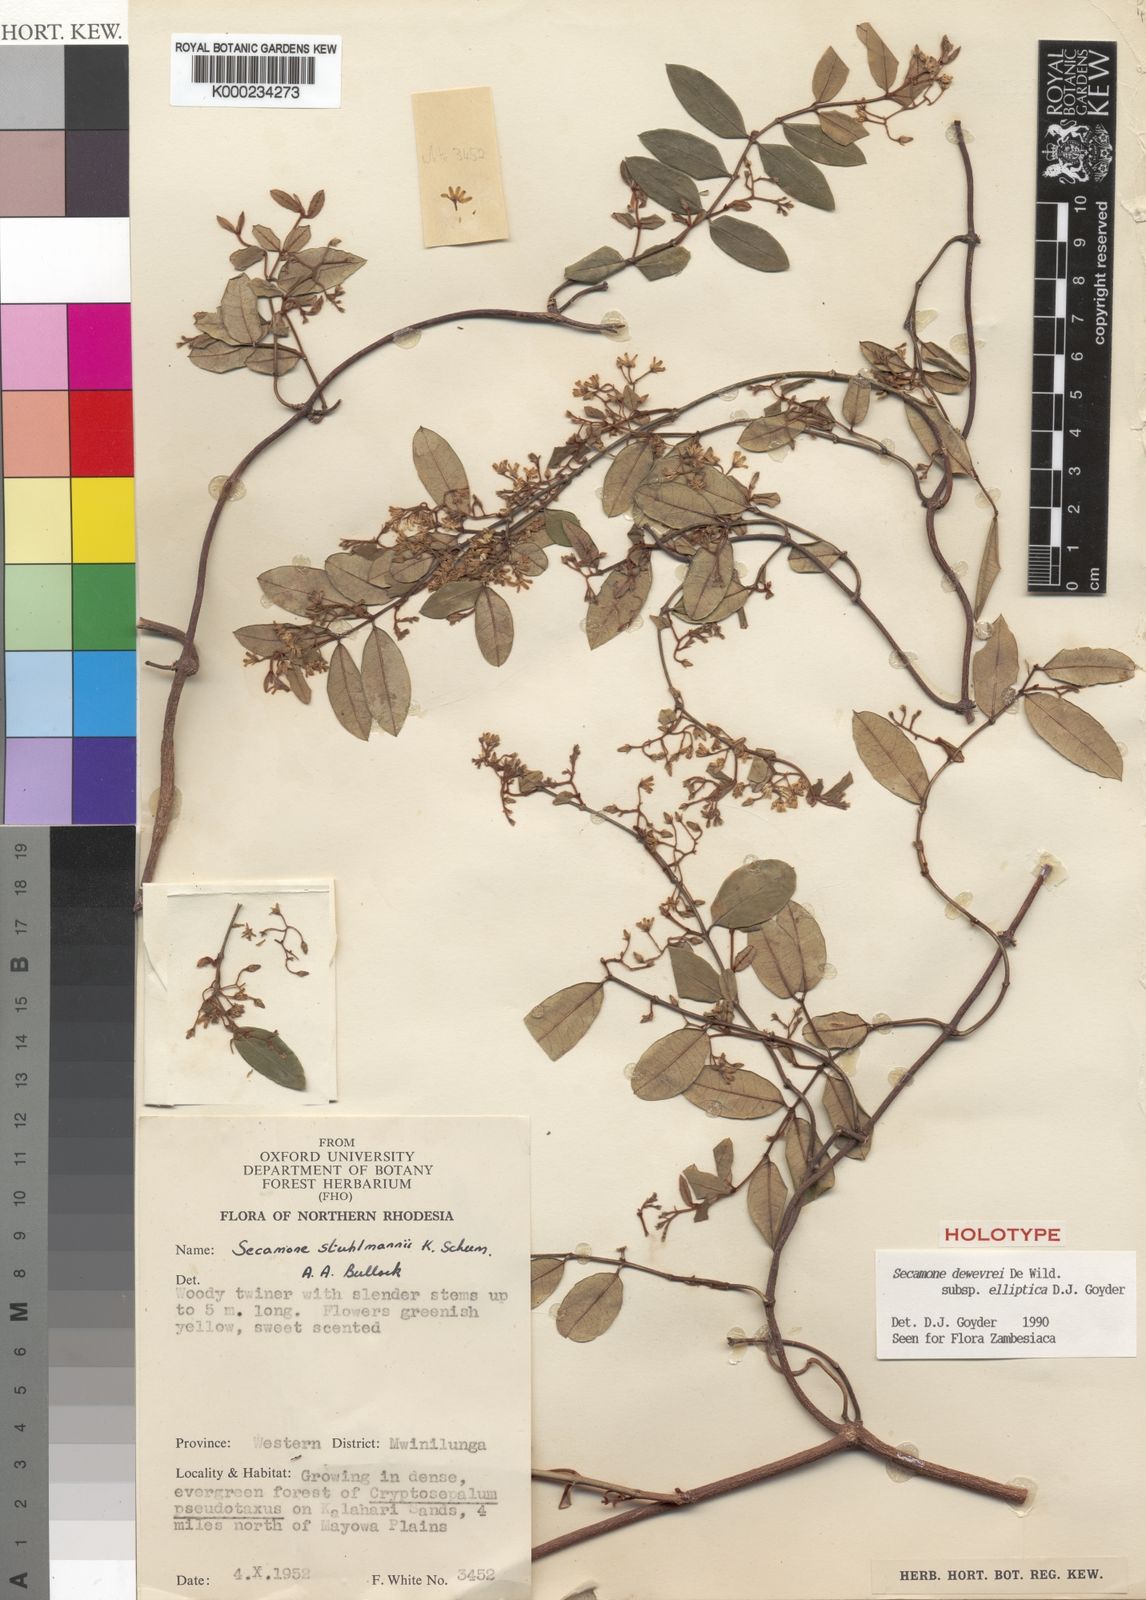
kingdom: Plantae
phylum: Tracheophyta
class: Magnoliopsida
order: Gentianales
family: Apocynaceae
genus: Secamone
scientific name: Secamone dewevrei
